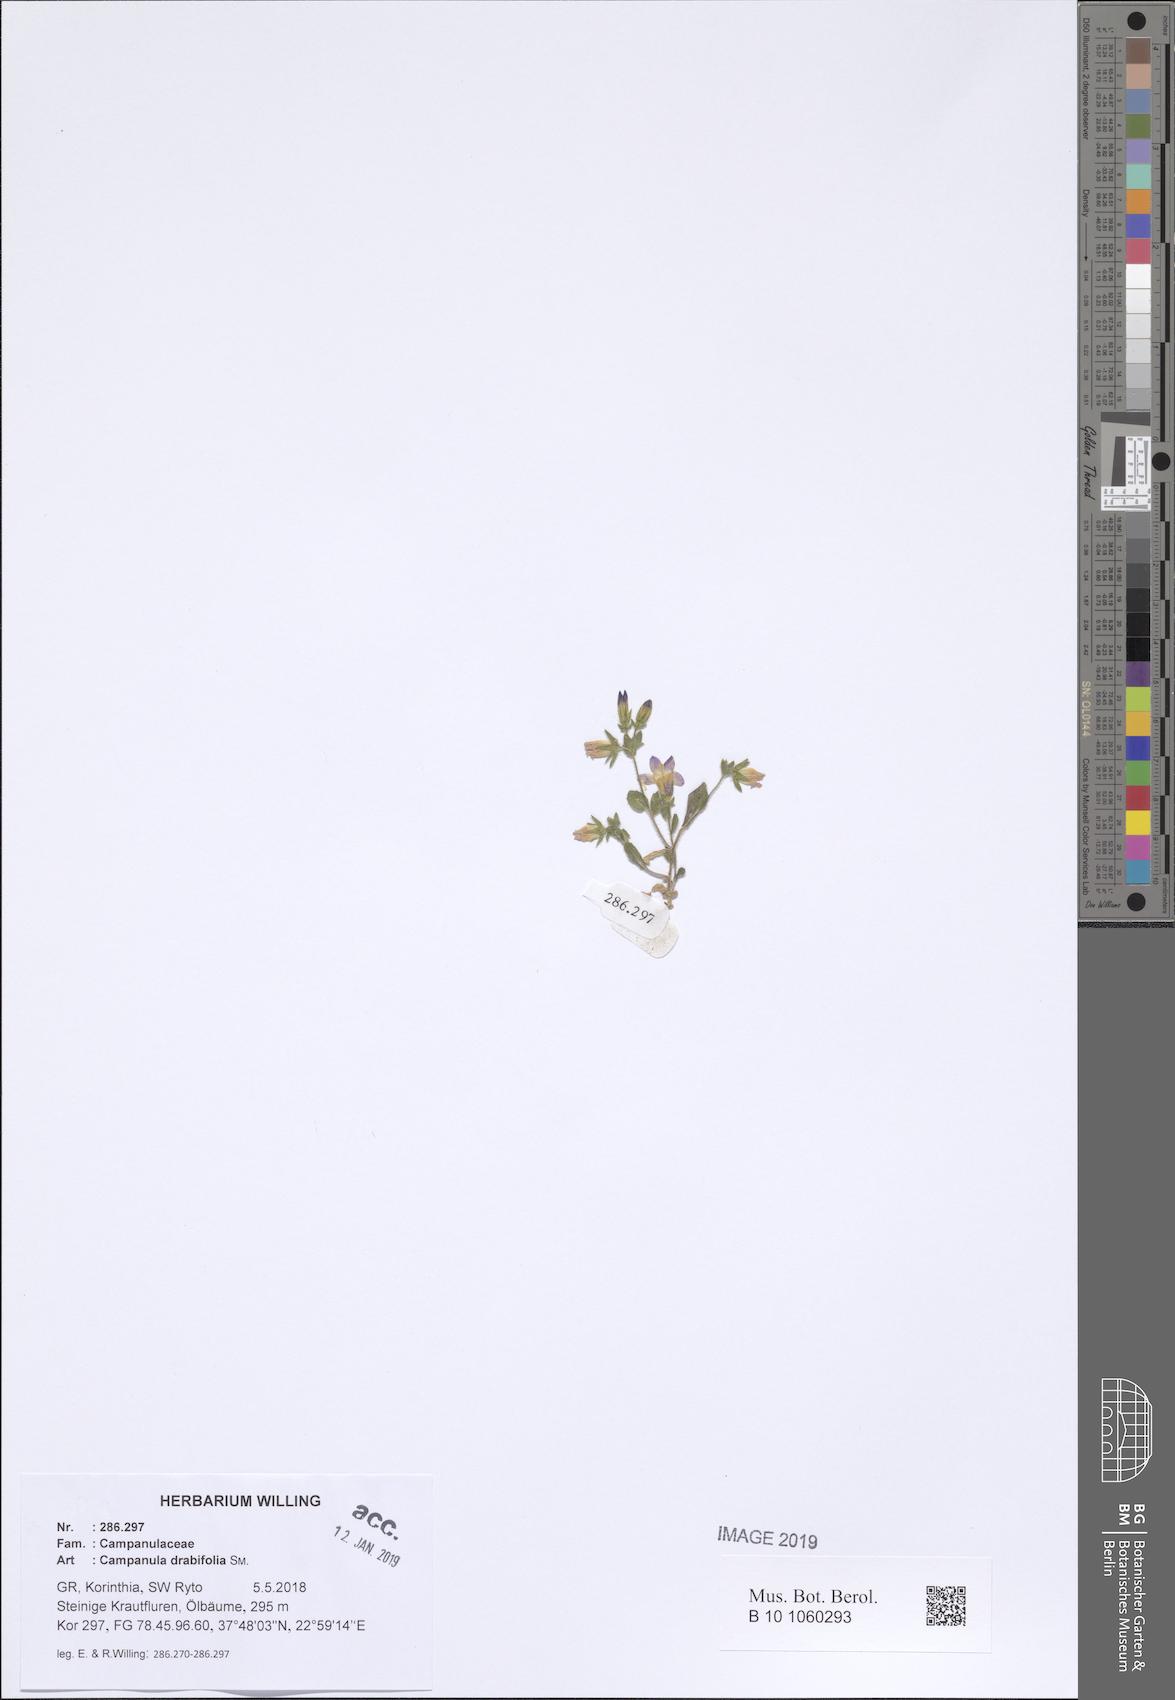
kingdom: Plantae
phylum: Tracheophyta
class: Magnoliopsida
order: Asterales
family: Campanulaceae
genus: Campanula
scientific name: Campanula drabifolia
